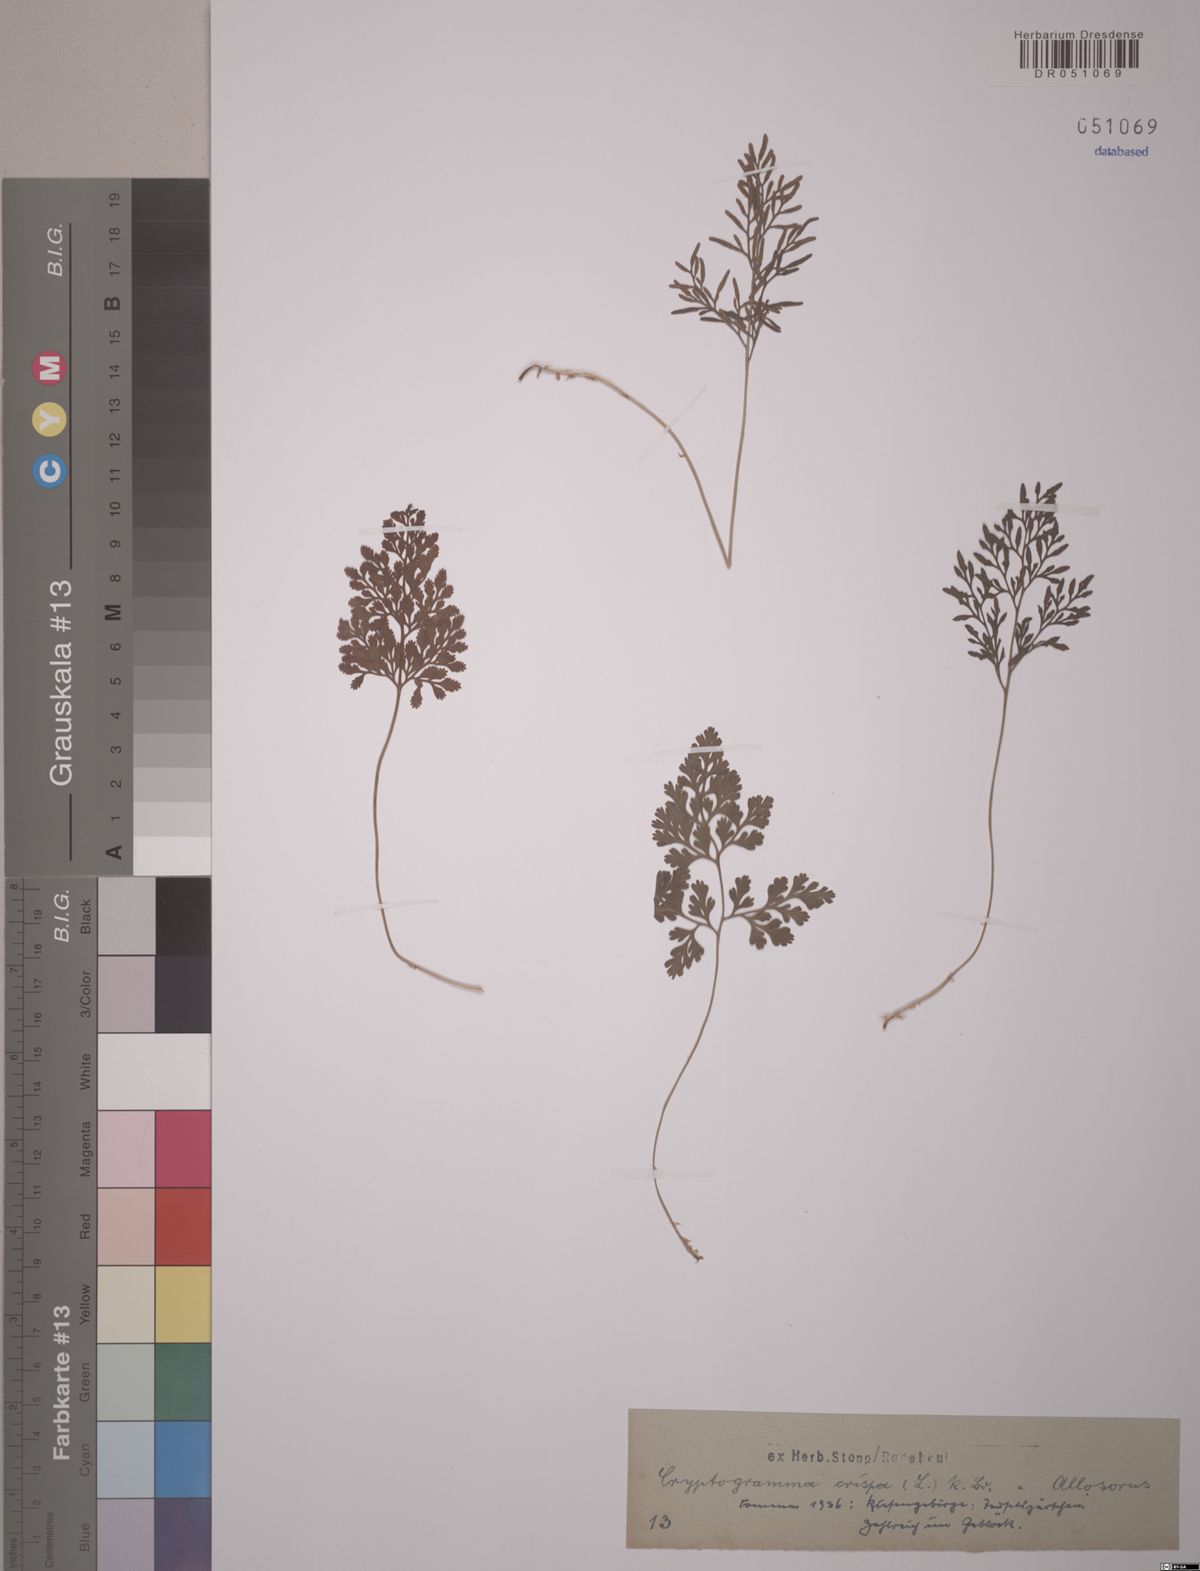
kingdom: Plantae
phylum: Tracheophyta
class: Polypodiopsida
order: Polypodiales
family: Pteridaceae
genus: Cryptogramma
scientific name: Cryptogramma crispa
